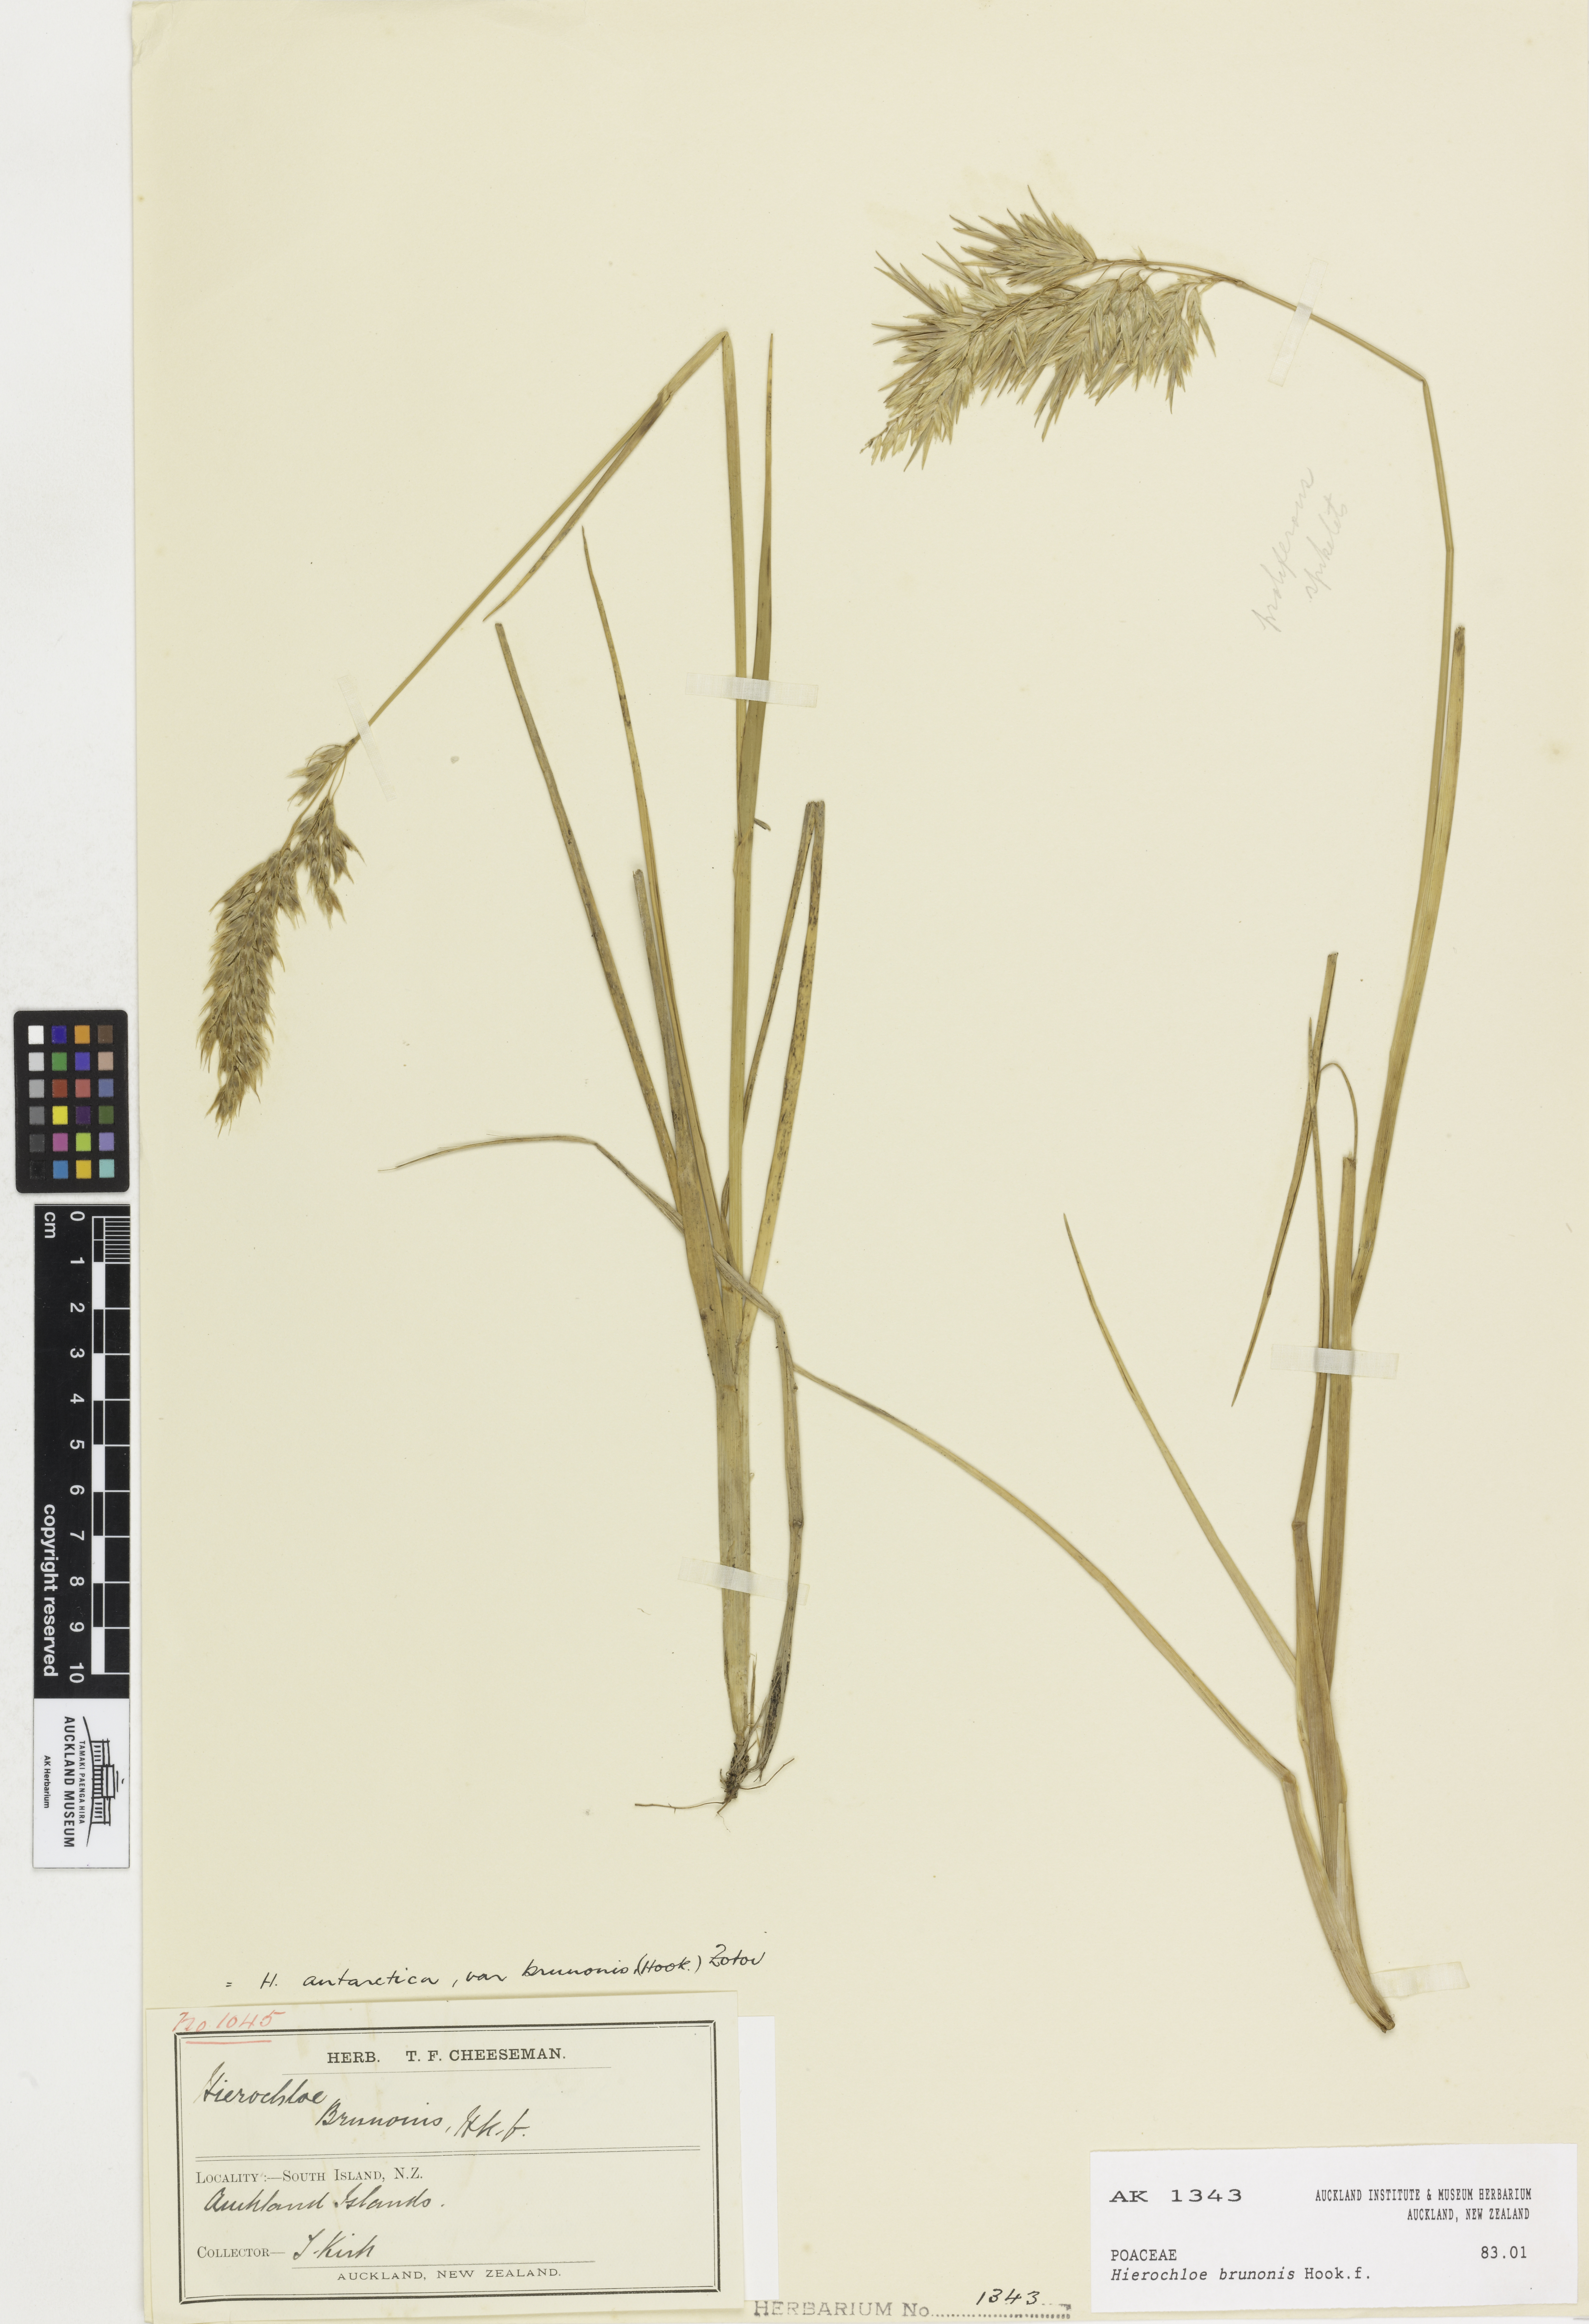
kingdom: Plantae
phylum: Tracheophyta
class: Liliopsida
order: Poales
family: Poaceae
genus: Anthoxanthum
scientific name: Anthoxanthum brunonis
